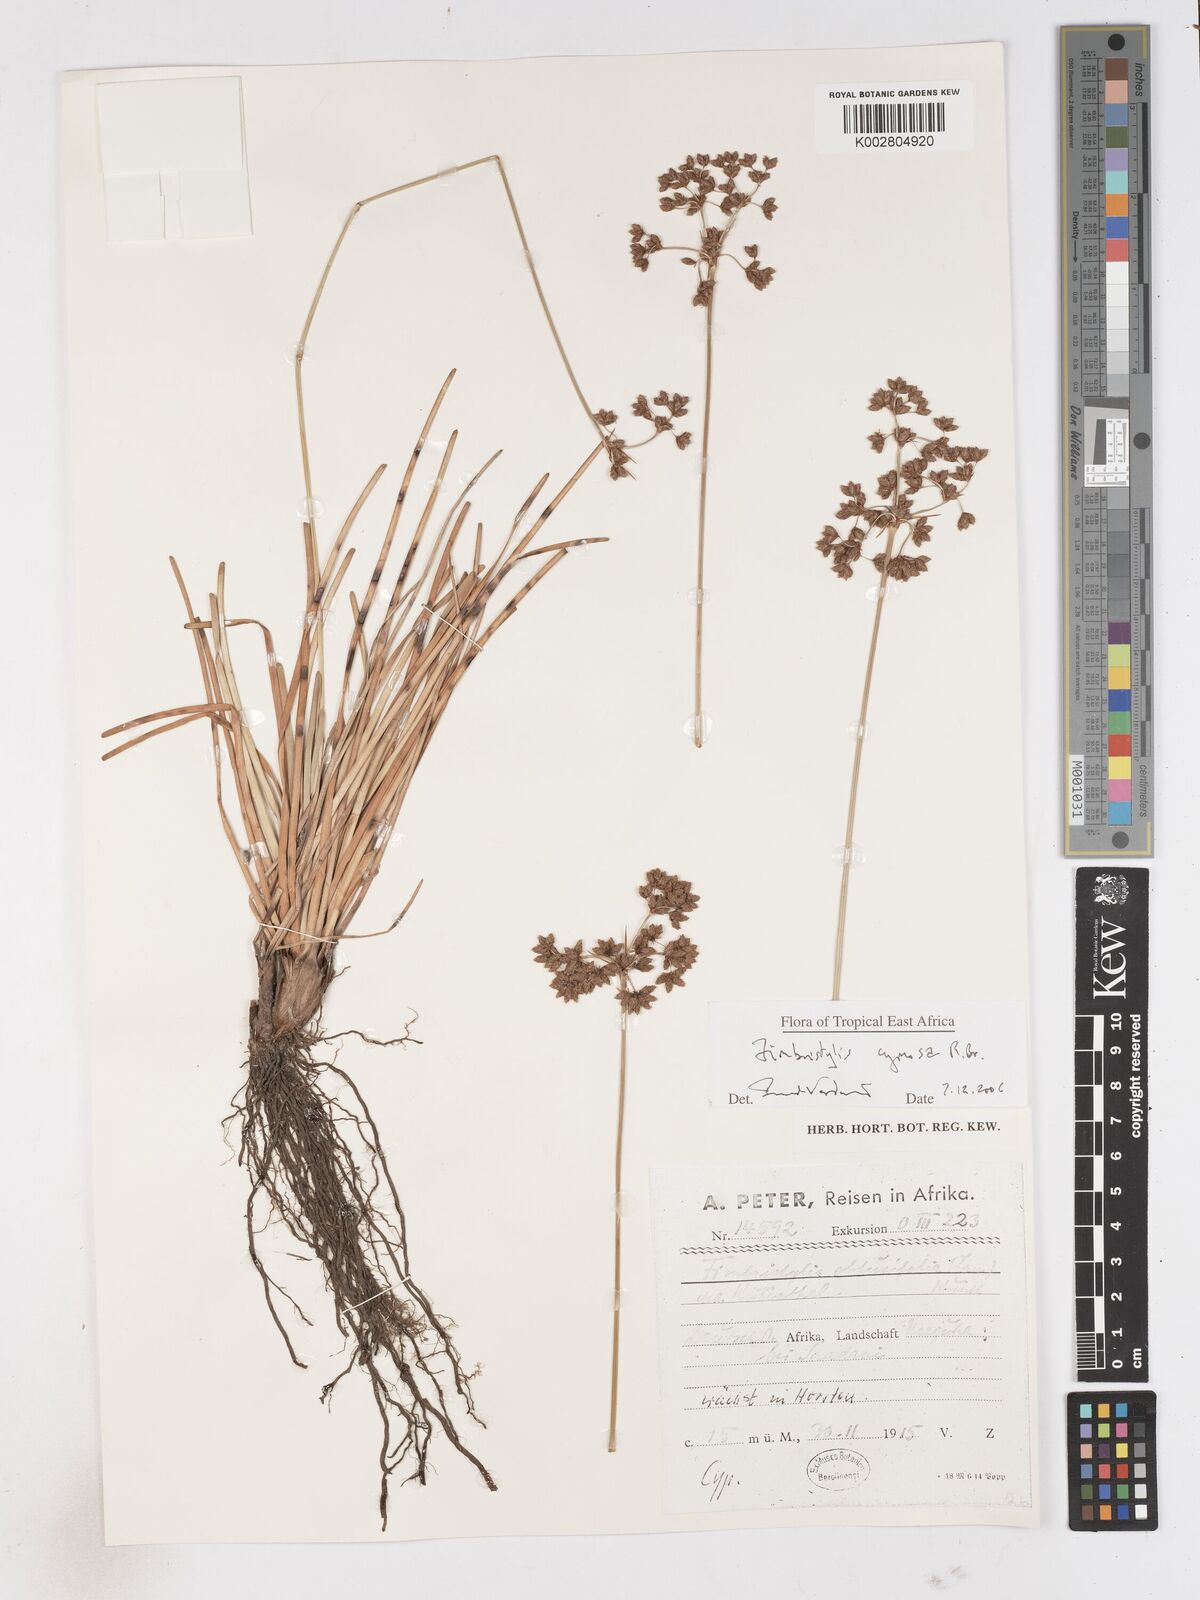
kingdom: Plantae
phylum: Tracheophyta
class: Liliopsida
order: Poales
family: Cyperaceae
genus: Fimbristylis
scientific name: Fimbristylis cymosa
